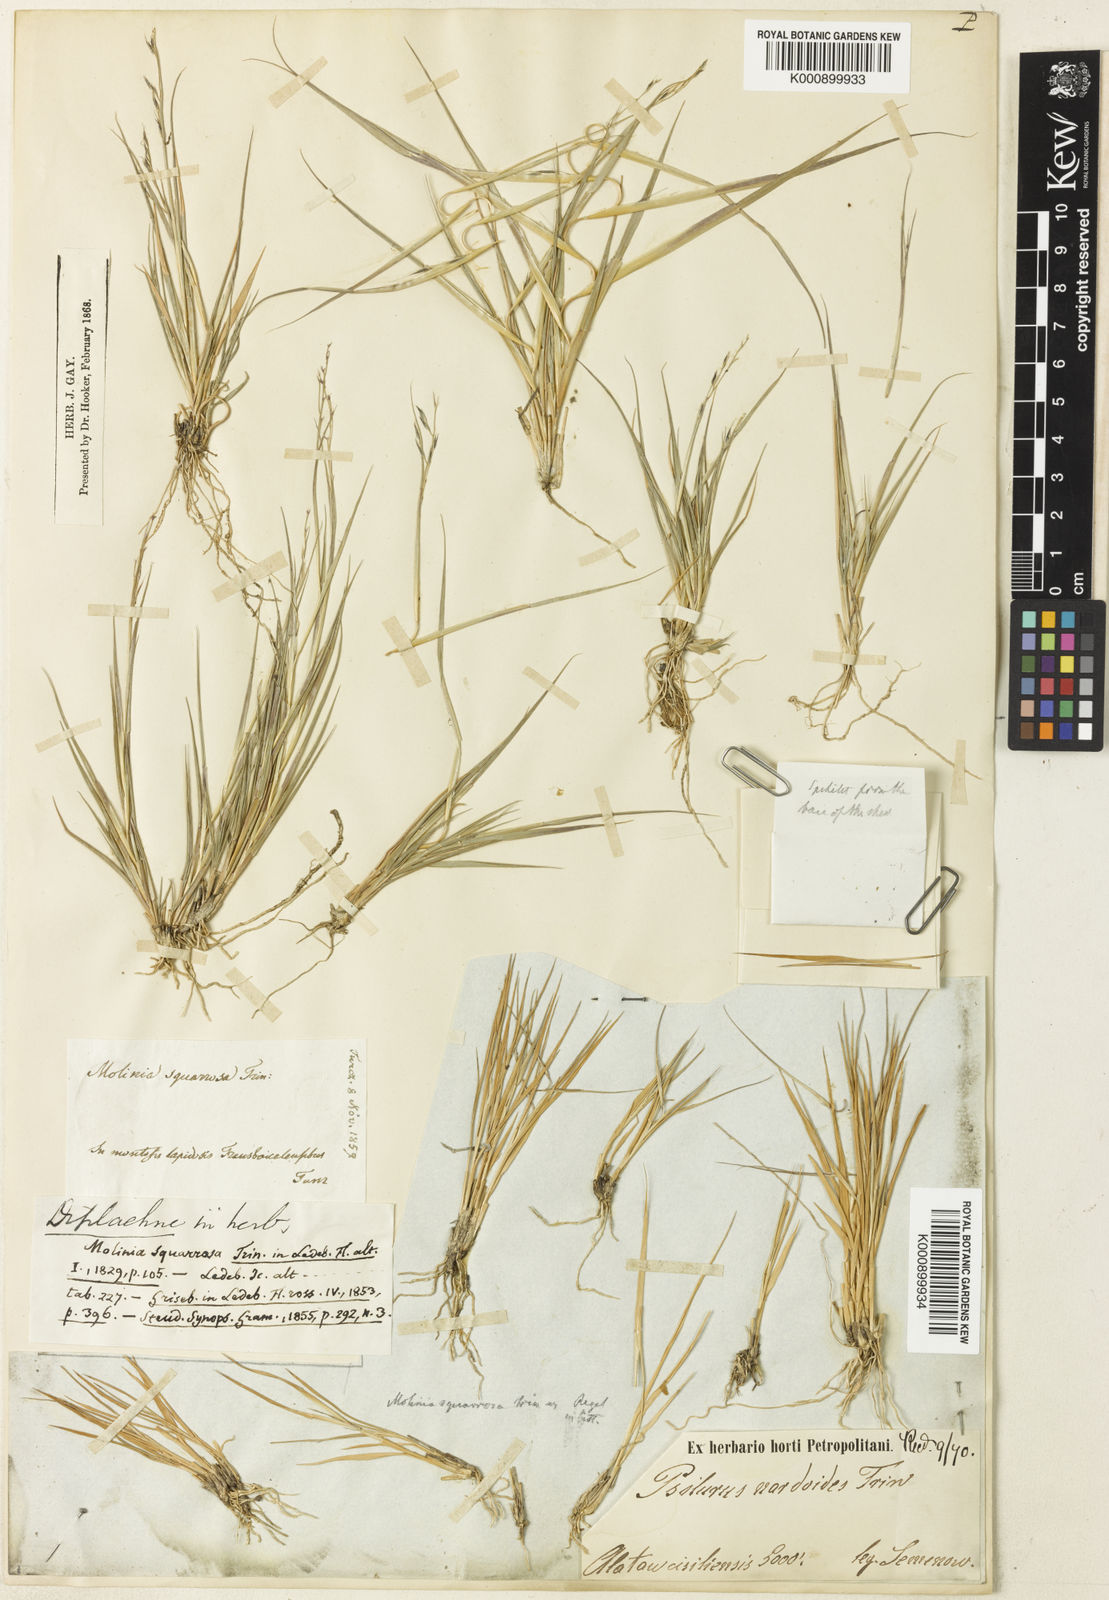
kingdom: Plantae
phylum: Tracheophyta
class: Liliopsida
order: Poales
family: Poaceae
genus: Cleistogenes
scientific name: Cleistogenes squarrosa
